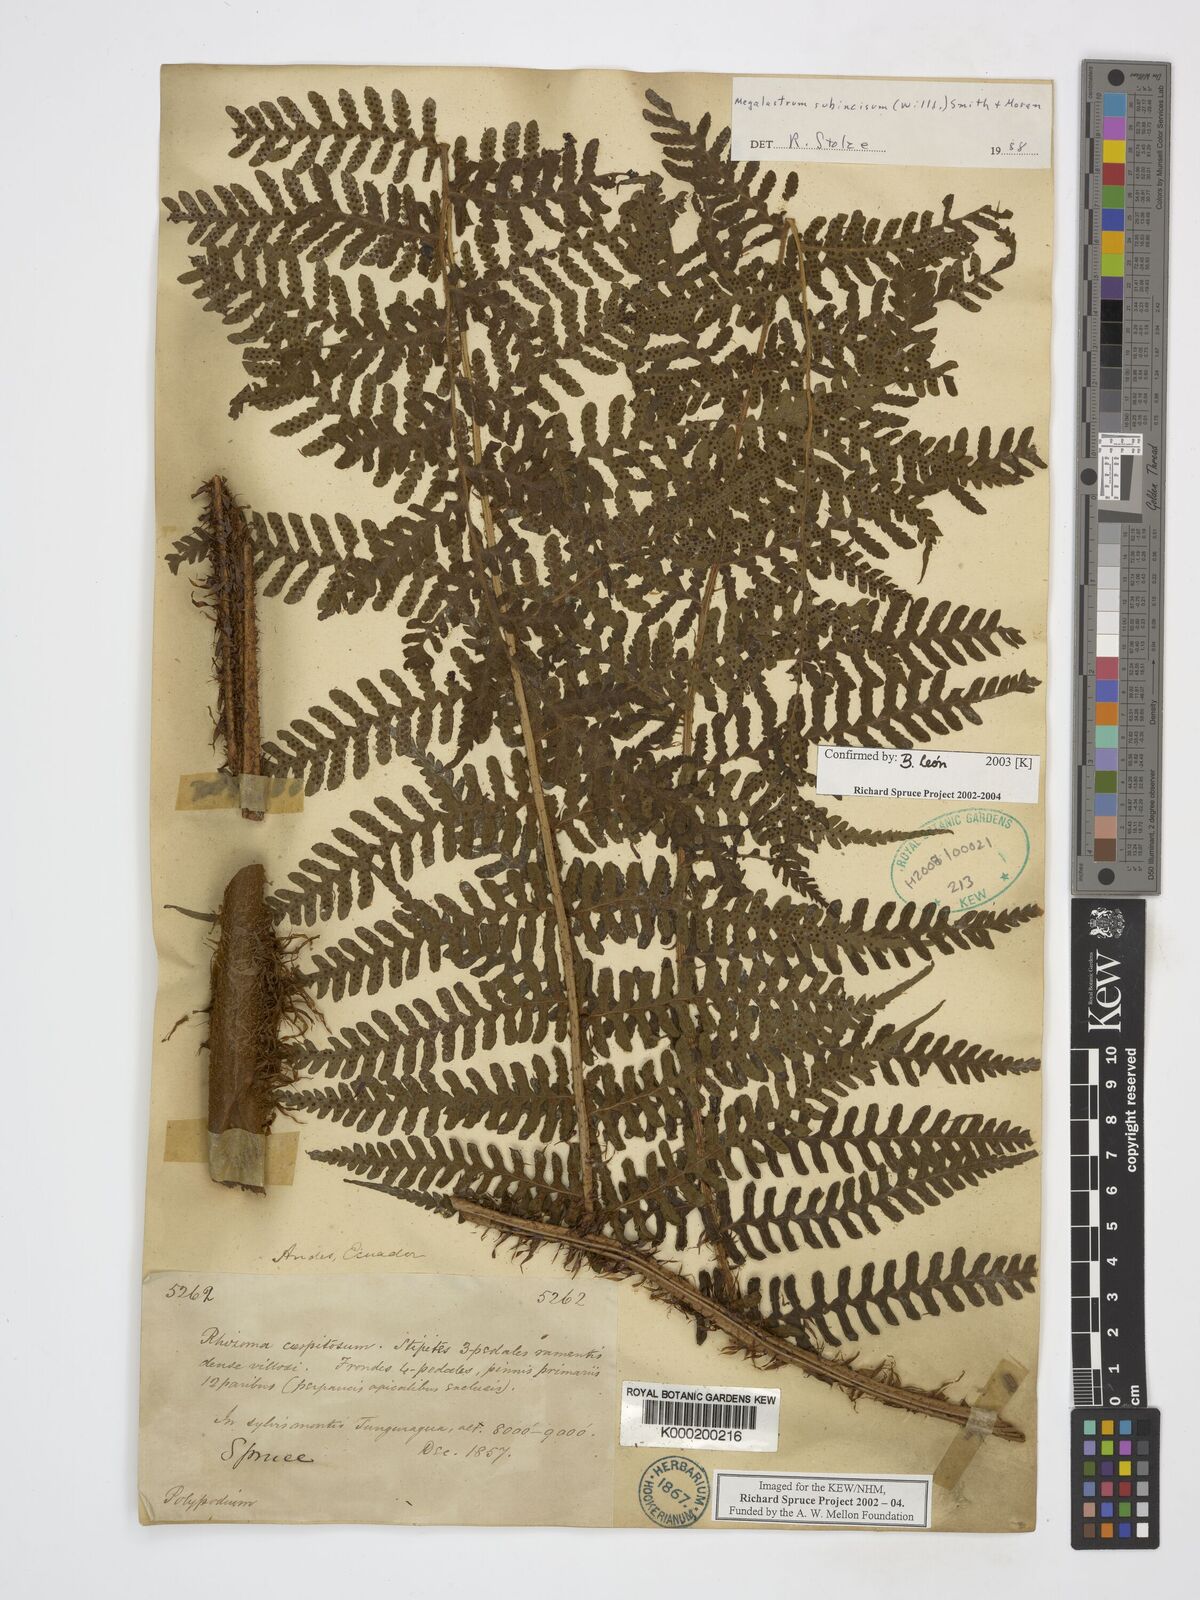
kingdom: Plantae
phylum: Tracheophyta
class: Polypodiopsida
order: Polypodiales
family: Dryopteridaceae
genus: Megalastrum
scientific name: Megalastrum subincisum
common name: Jagleaf junglefern
